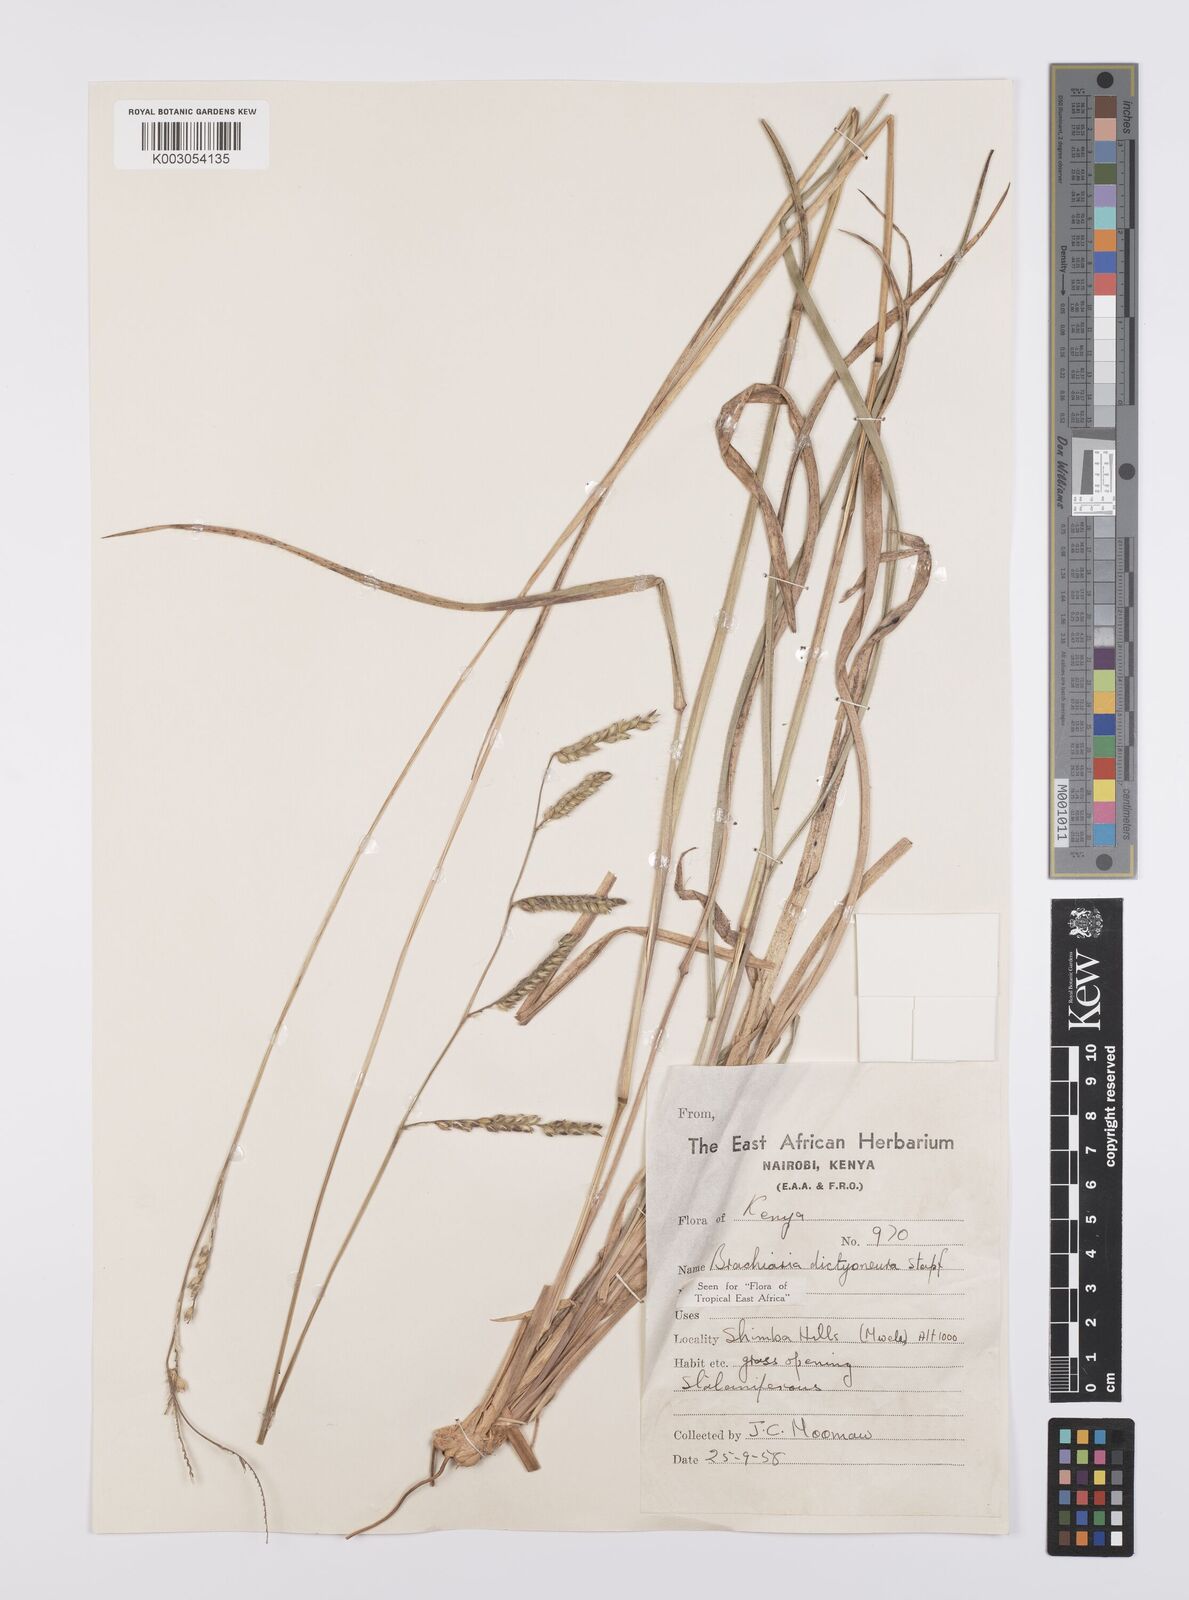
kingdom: Plantae
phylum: Tracheophyta
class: Liliopsida
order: Poales
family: Poaceae
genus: Urochloa
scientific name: Urochloa dictyoneura
